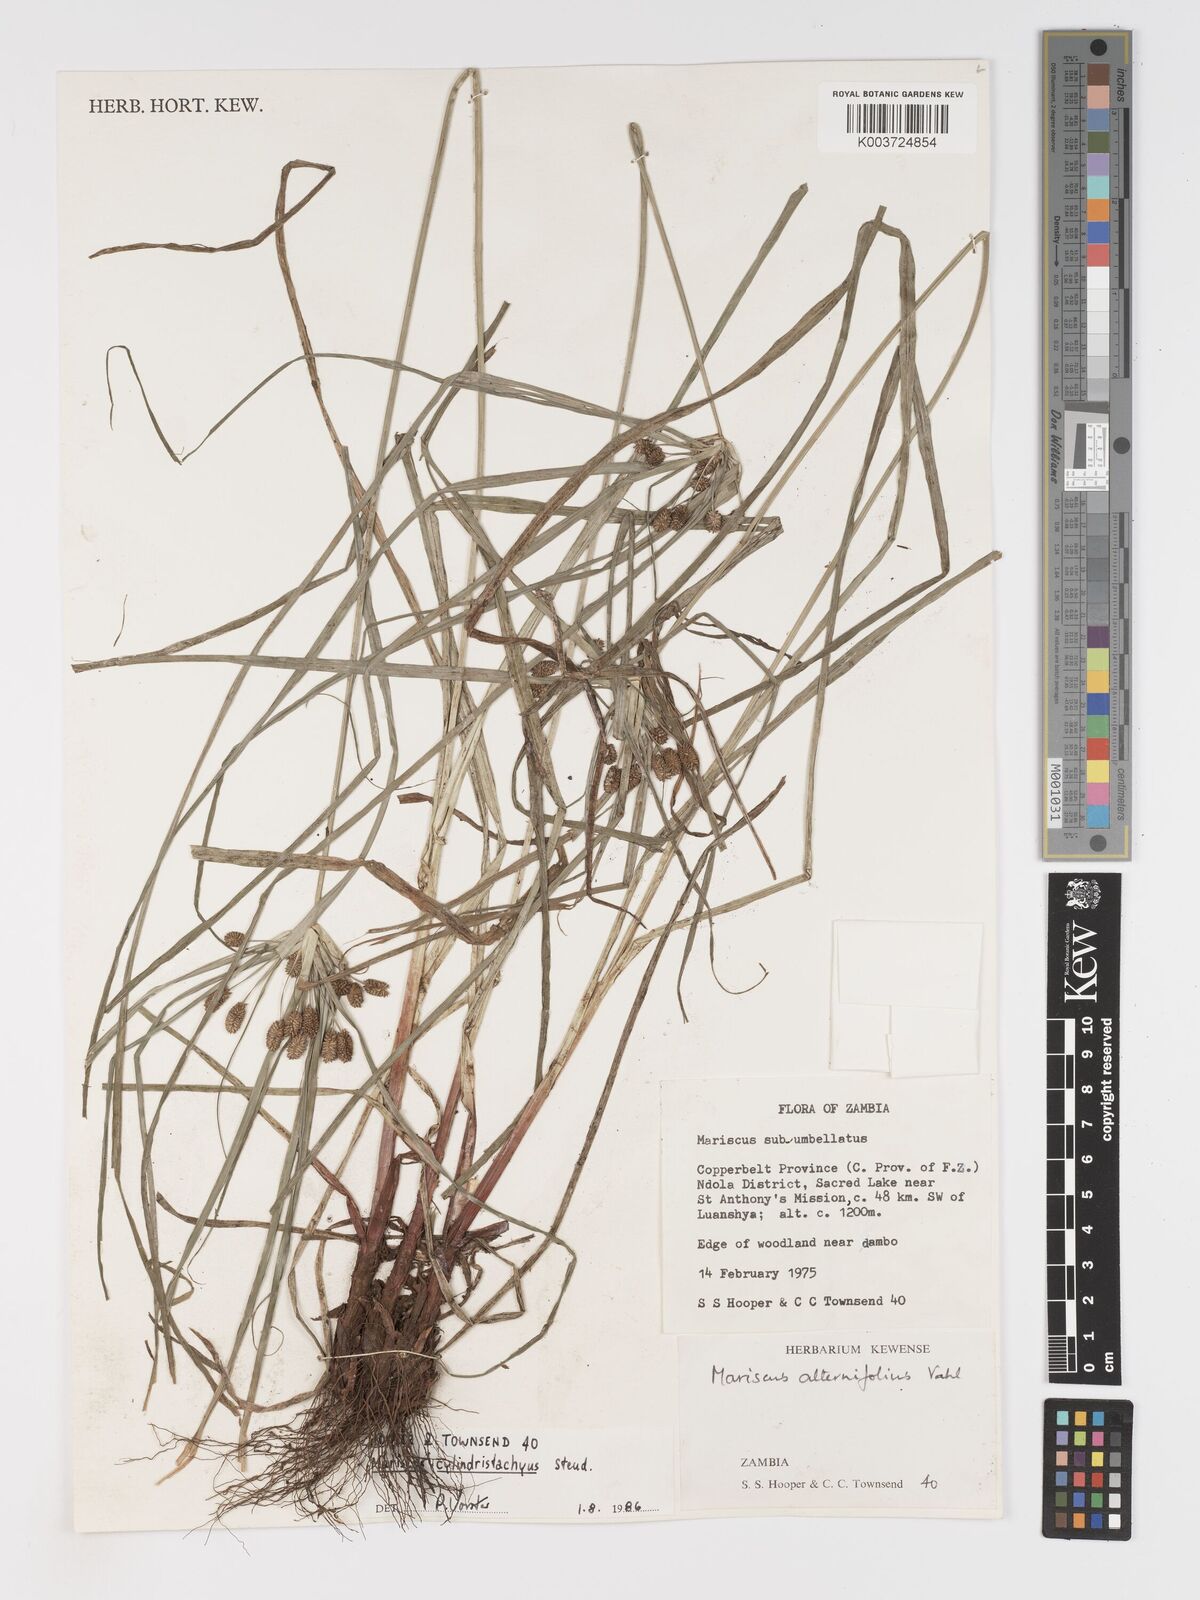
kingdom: Plantae
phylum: Tracheophyta
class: Liliopsida
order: Poales
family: Cyperaceae
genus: Cyperus
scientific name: Cyperus cyperoides
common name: Pacific island flat sedge
